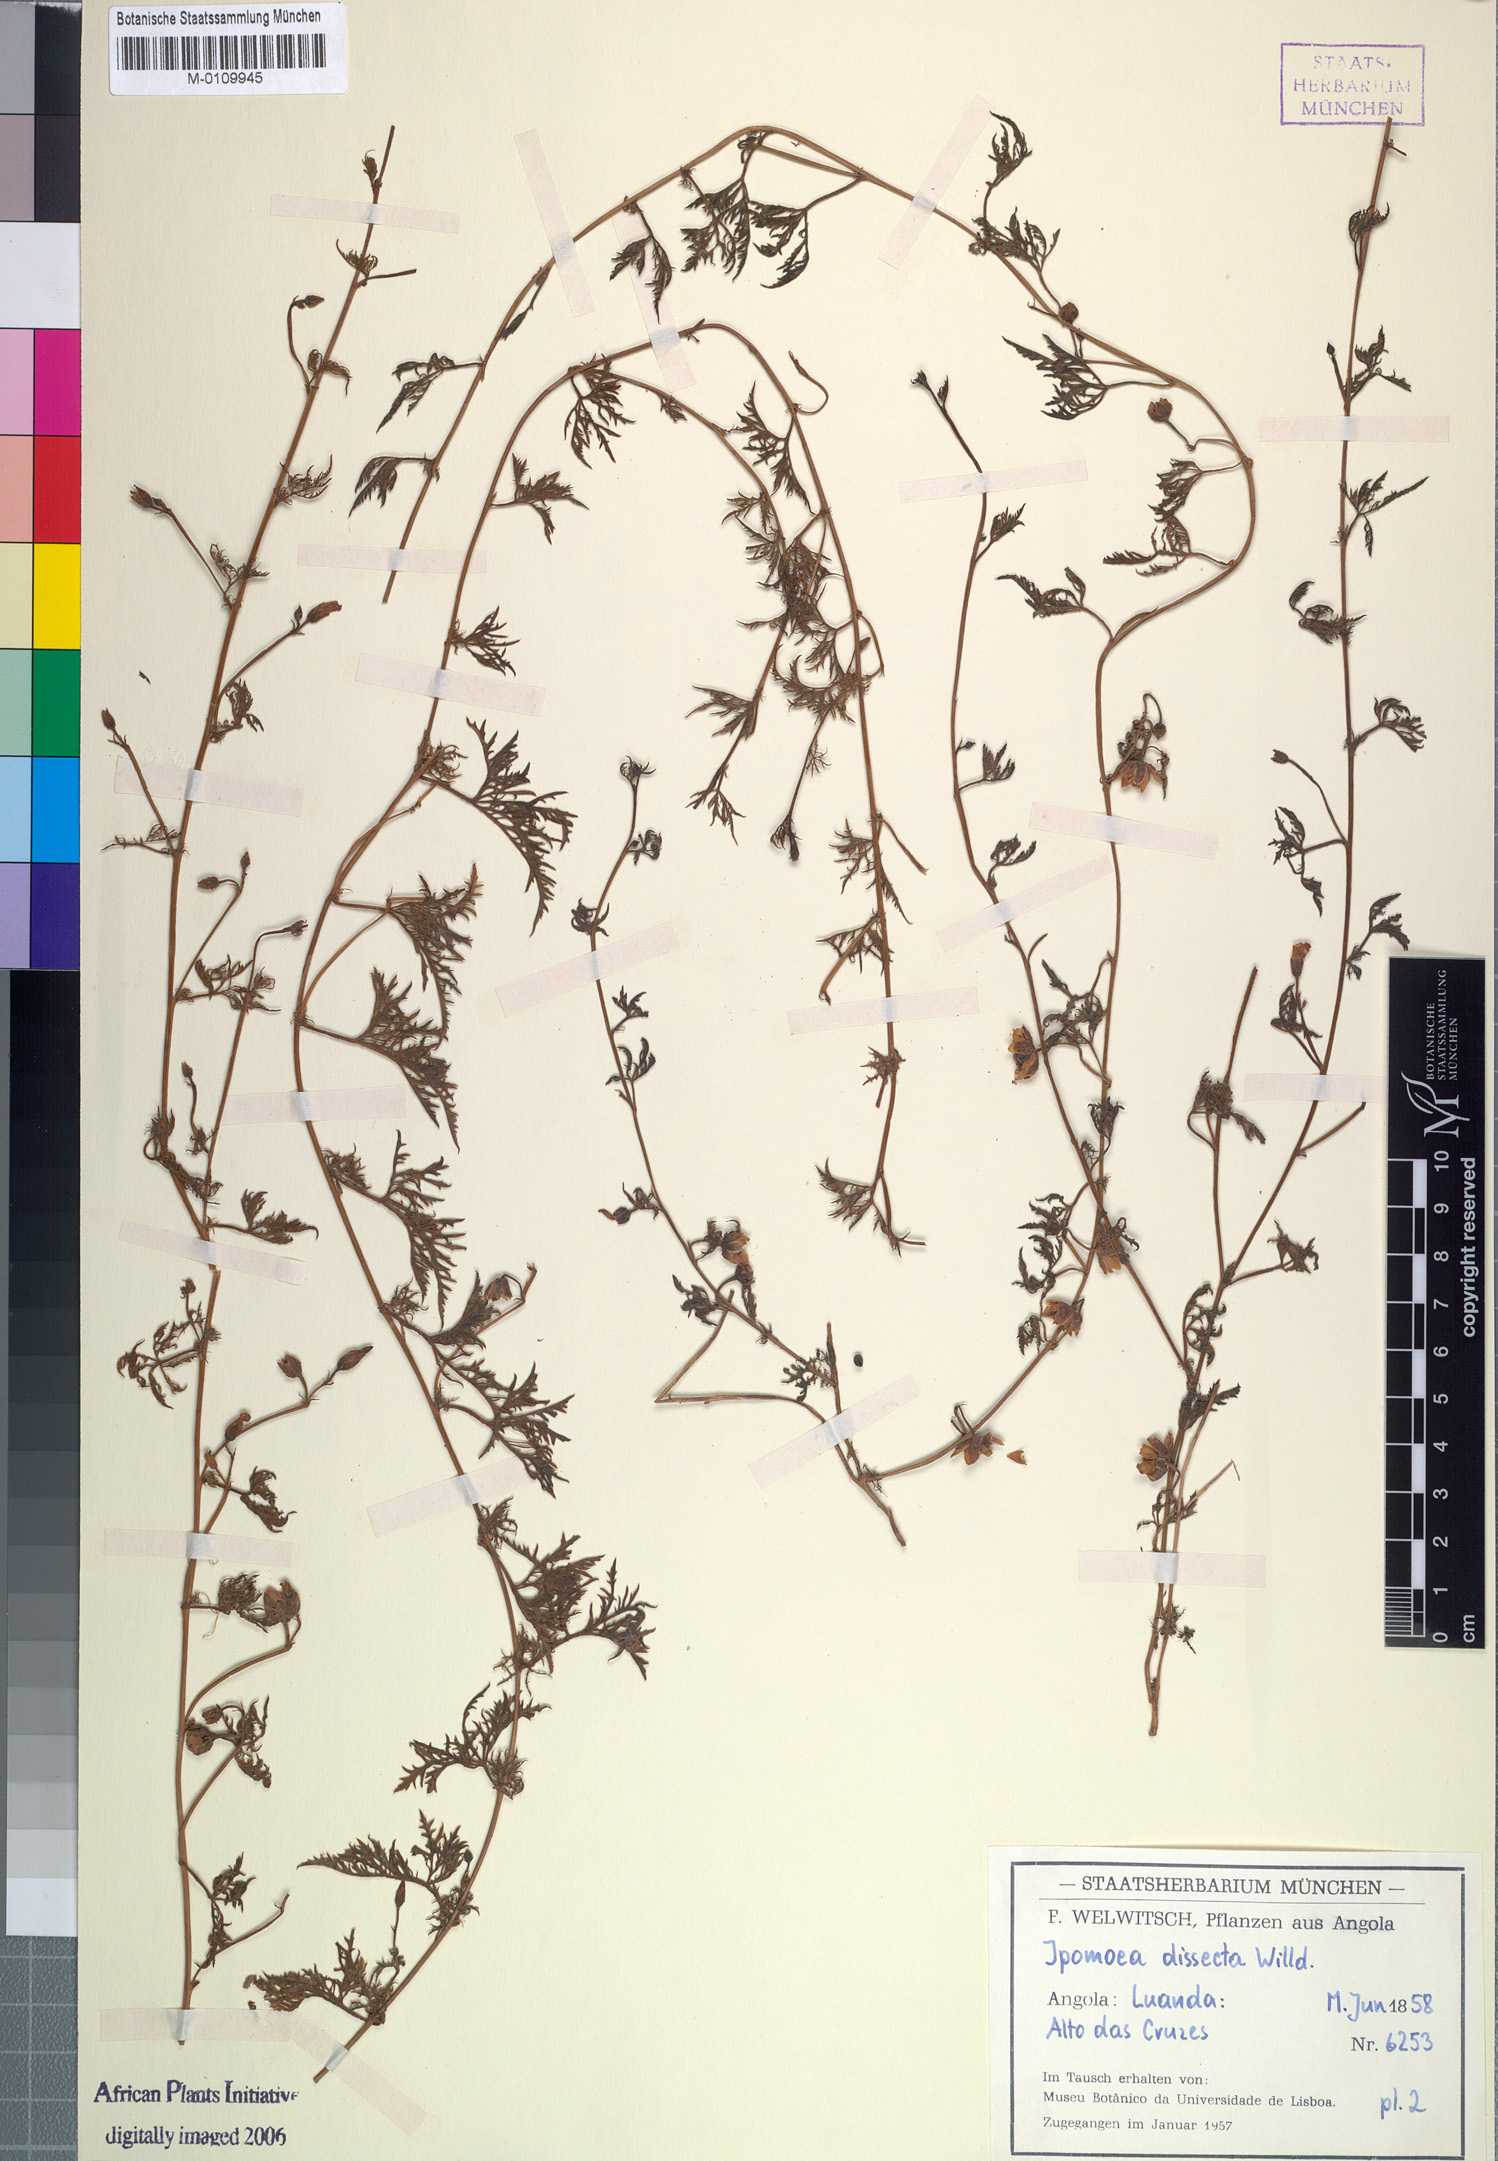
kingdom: Plantae
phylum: Tracheophyta
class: Magnoliopsida
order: Solanales
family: Convolvulaceae
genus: Ipomoea
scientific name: Ipomoea coptica
